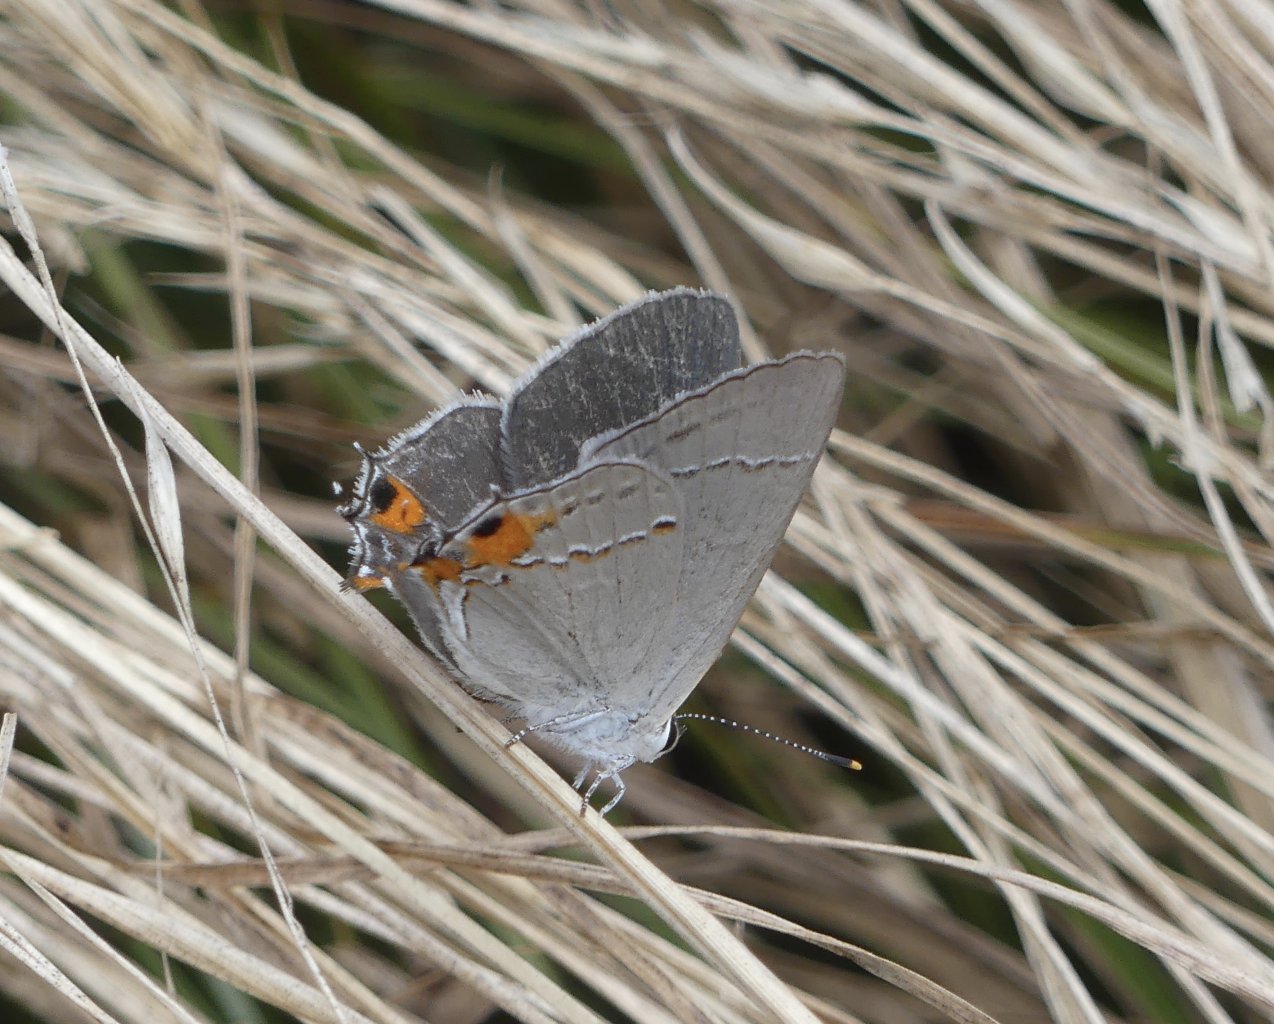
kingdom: Animalia
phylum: Arthropoda
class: Insecta
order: Lepidoptera
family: Lycaenidae
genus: Strymon
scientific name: Strymon melinus
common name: Gray Hairstreak
